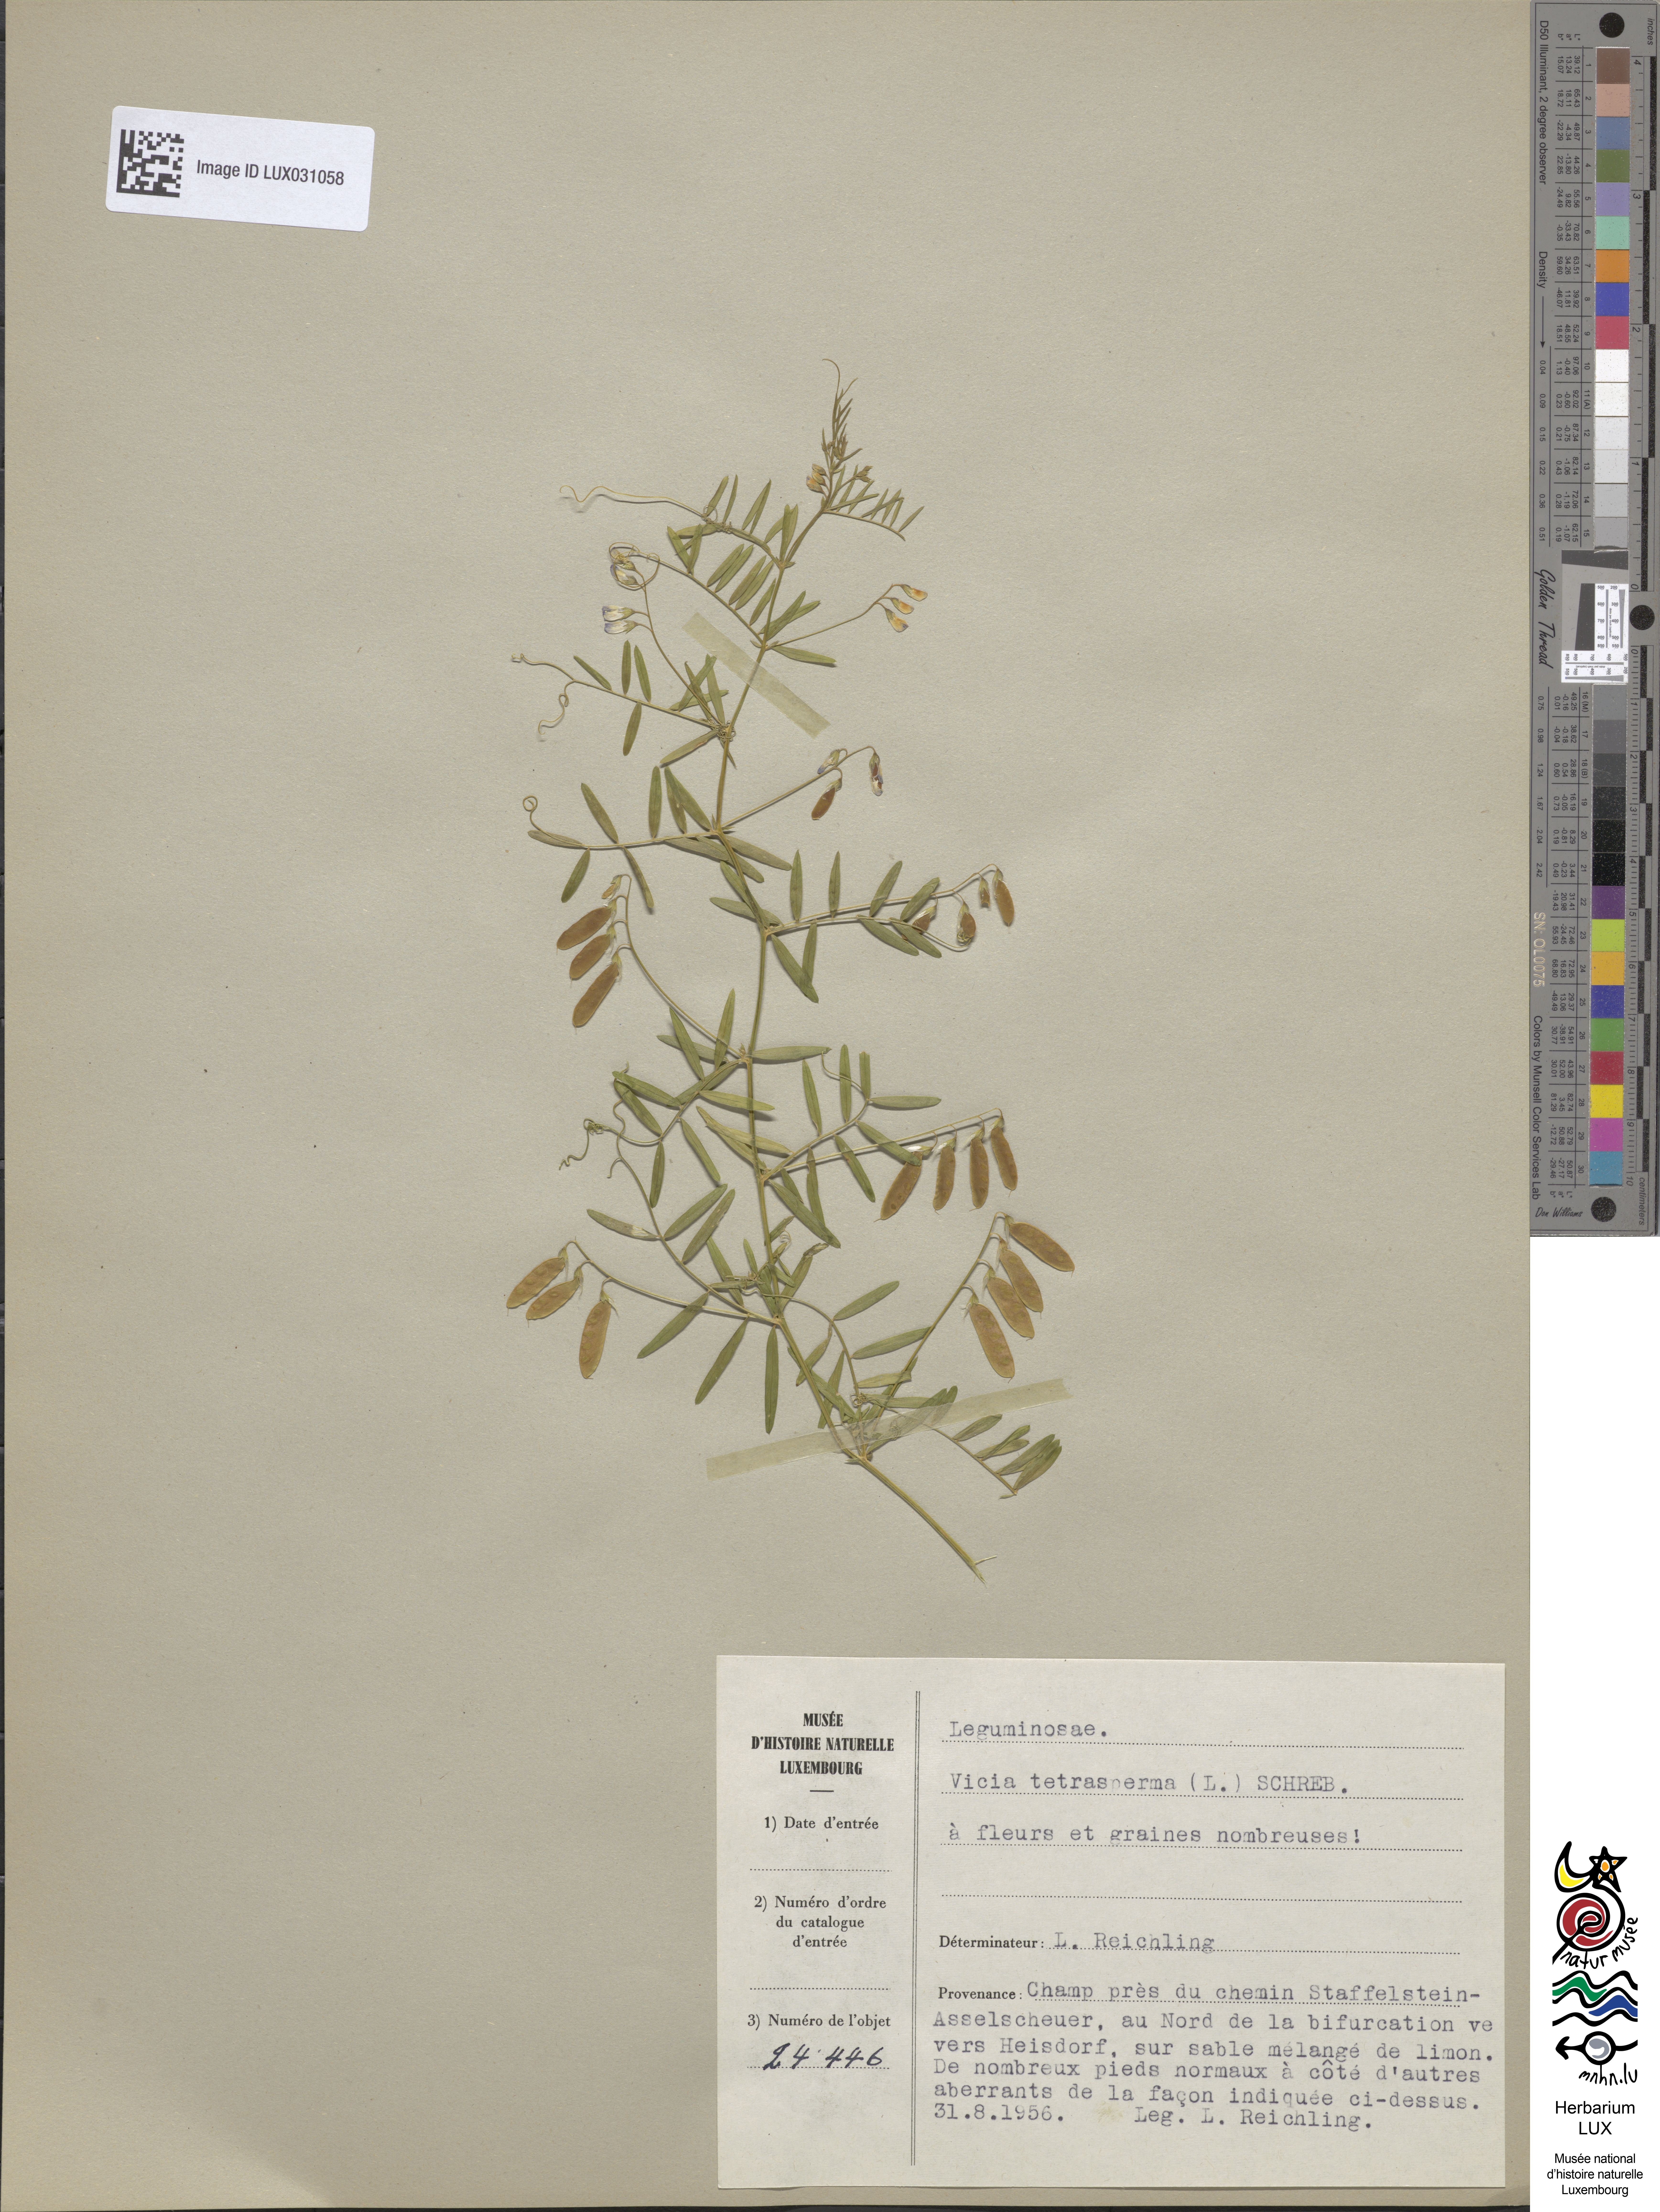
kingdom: Plantae
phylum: Tracheophyta
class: Magnoliopsida
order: Fabales
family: Fabaceae
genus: Vicia
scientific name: Vicia tetrasperma
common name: Smooth tare
